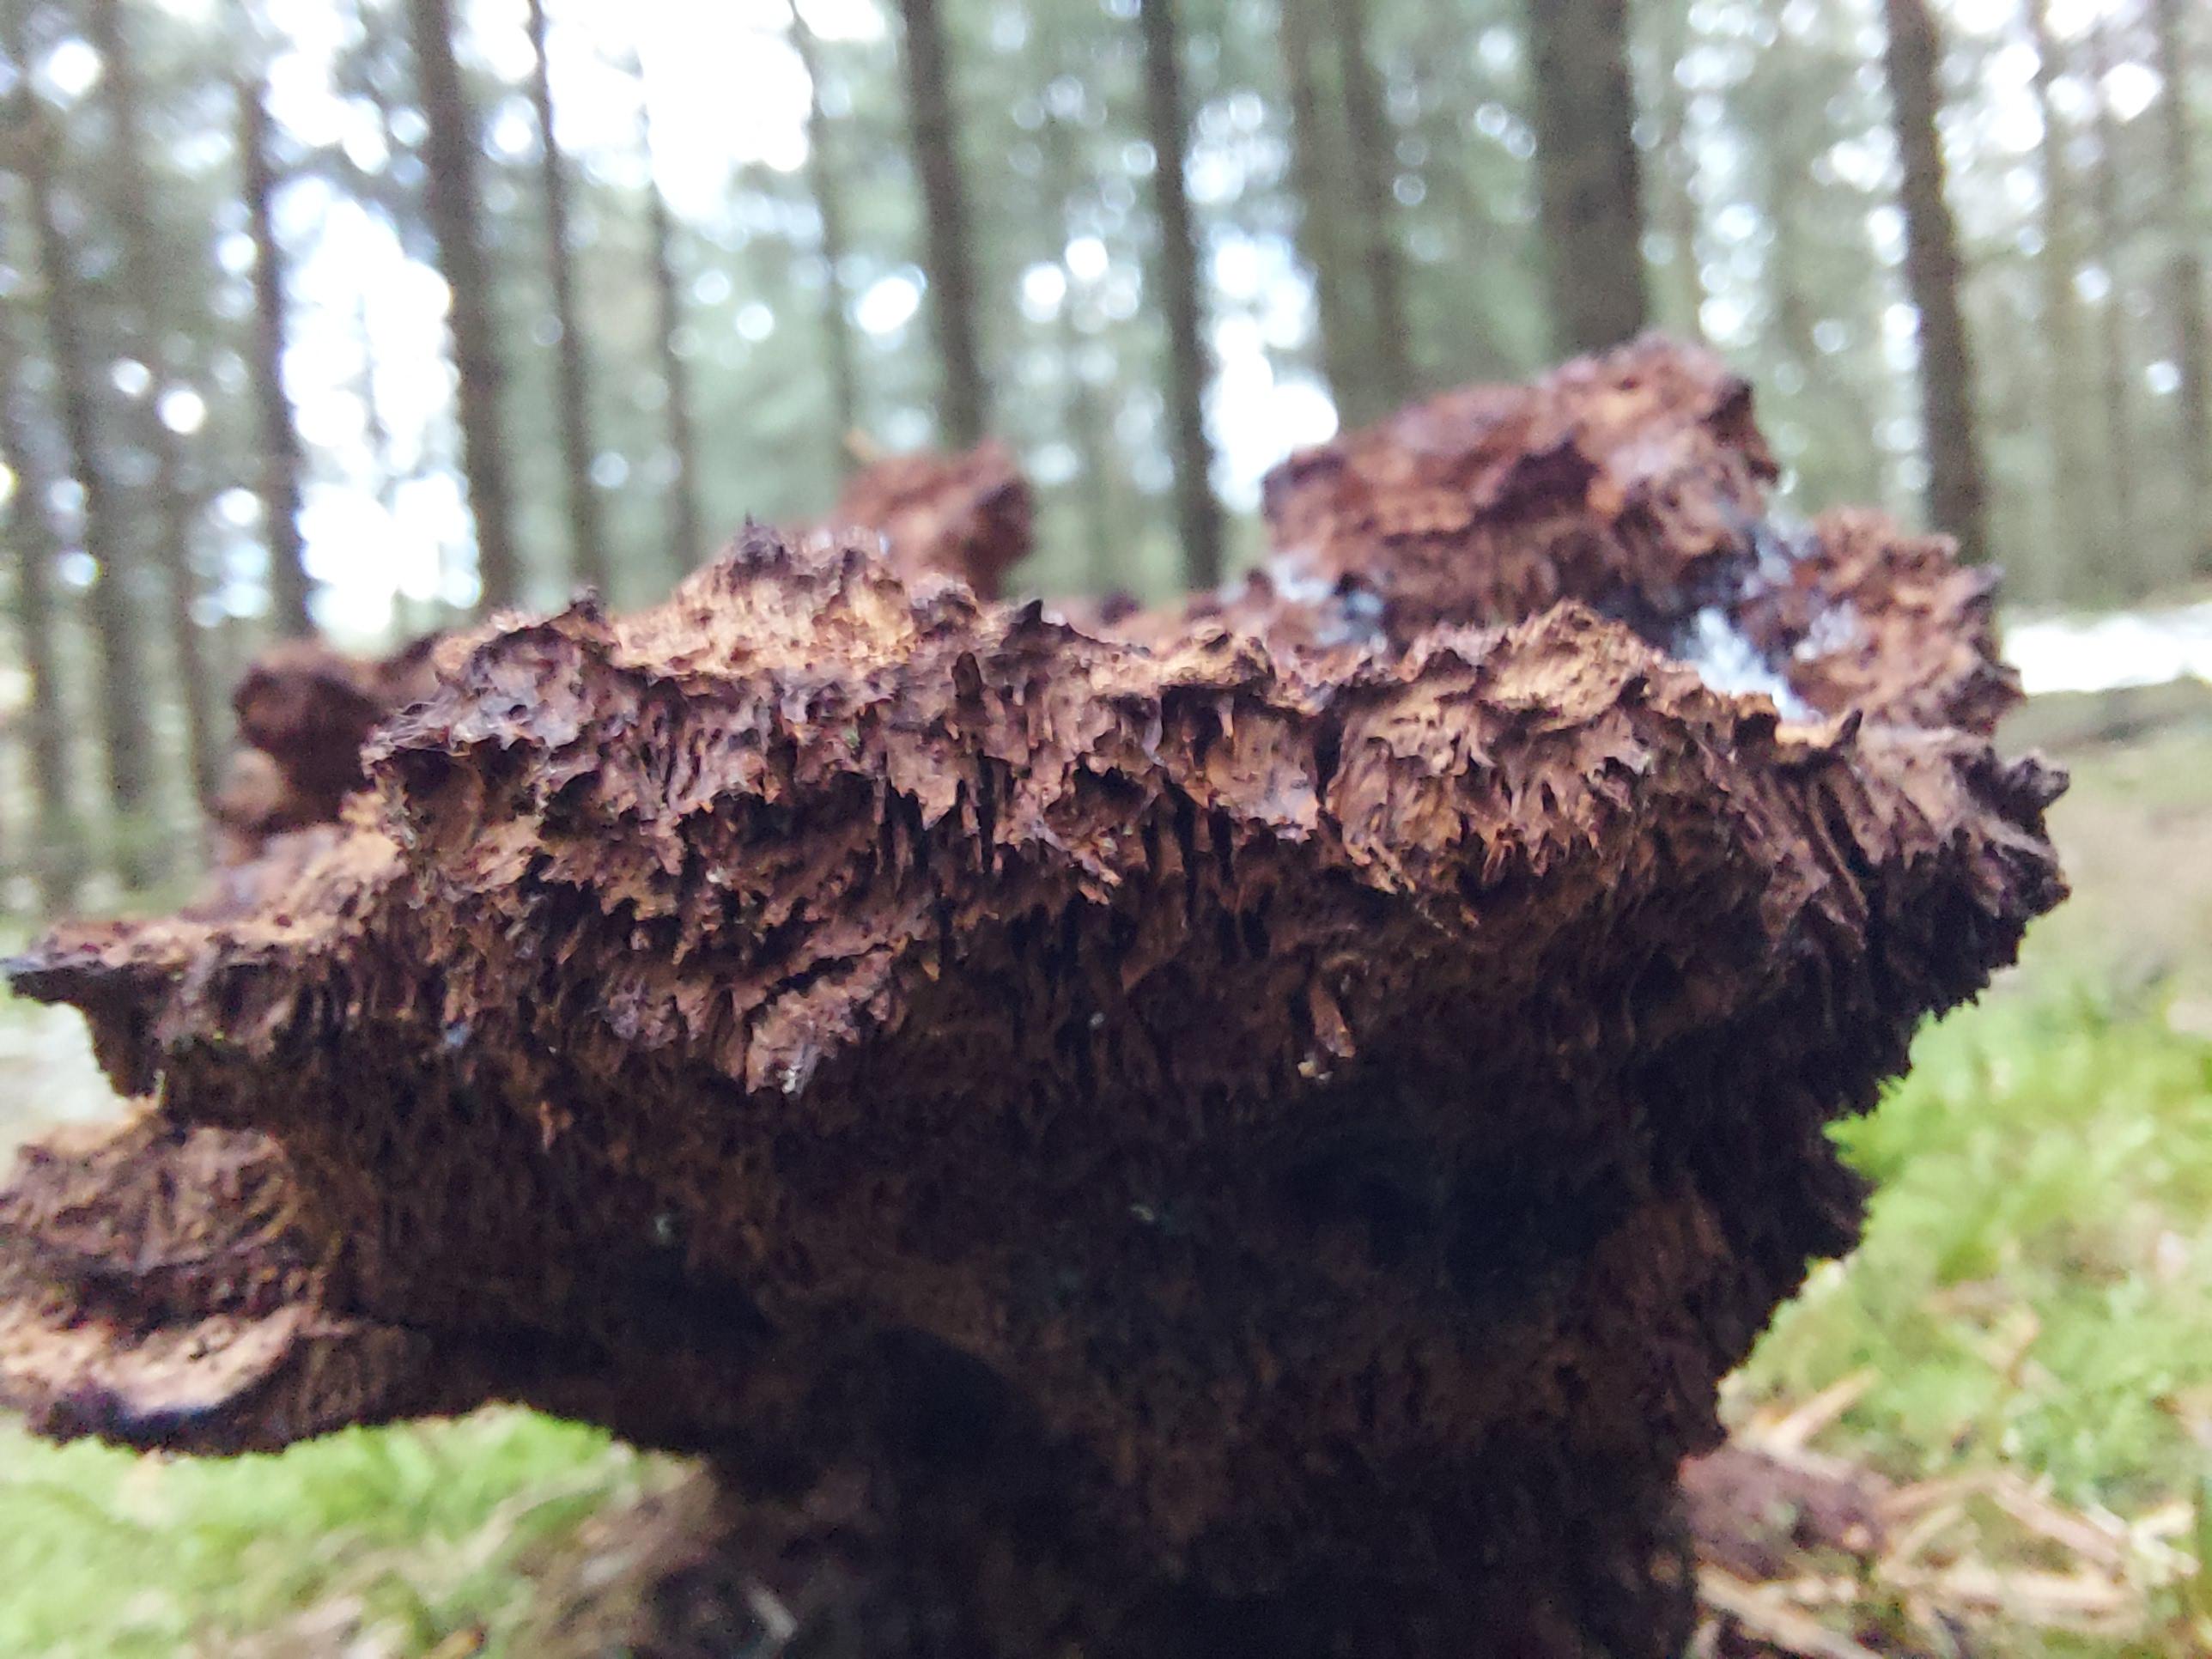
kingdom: Fungi
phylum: Basidiomycota
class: Agaricomycetes
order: Polyporales
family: Laetiporaceae
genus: Phaeolus
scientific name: Phaeolus schweinitzii
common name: brunporesvamp
